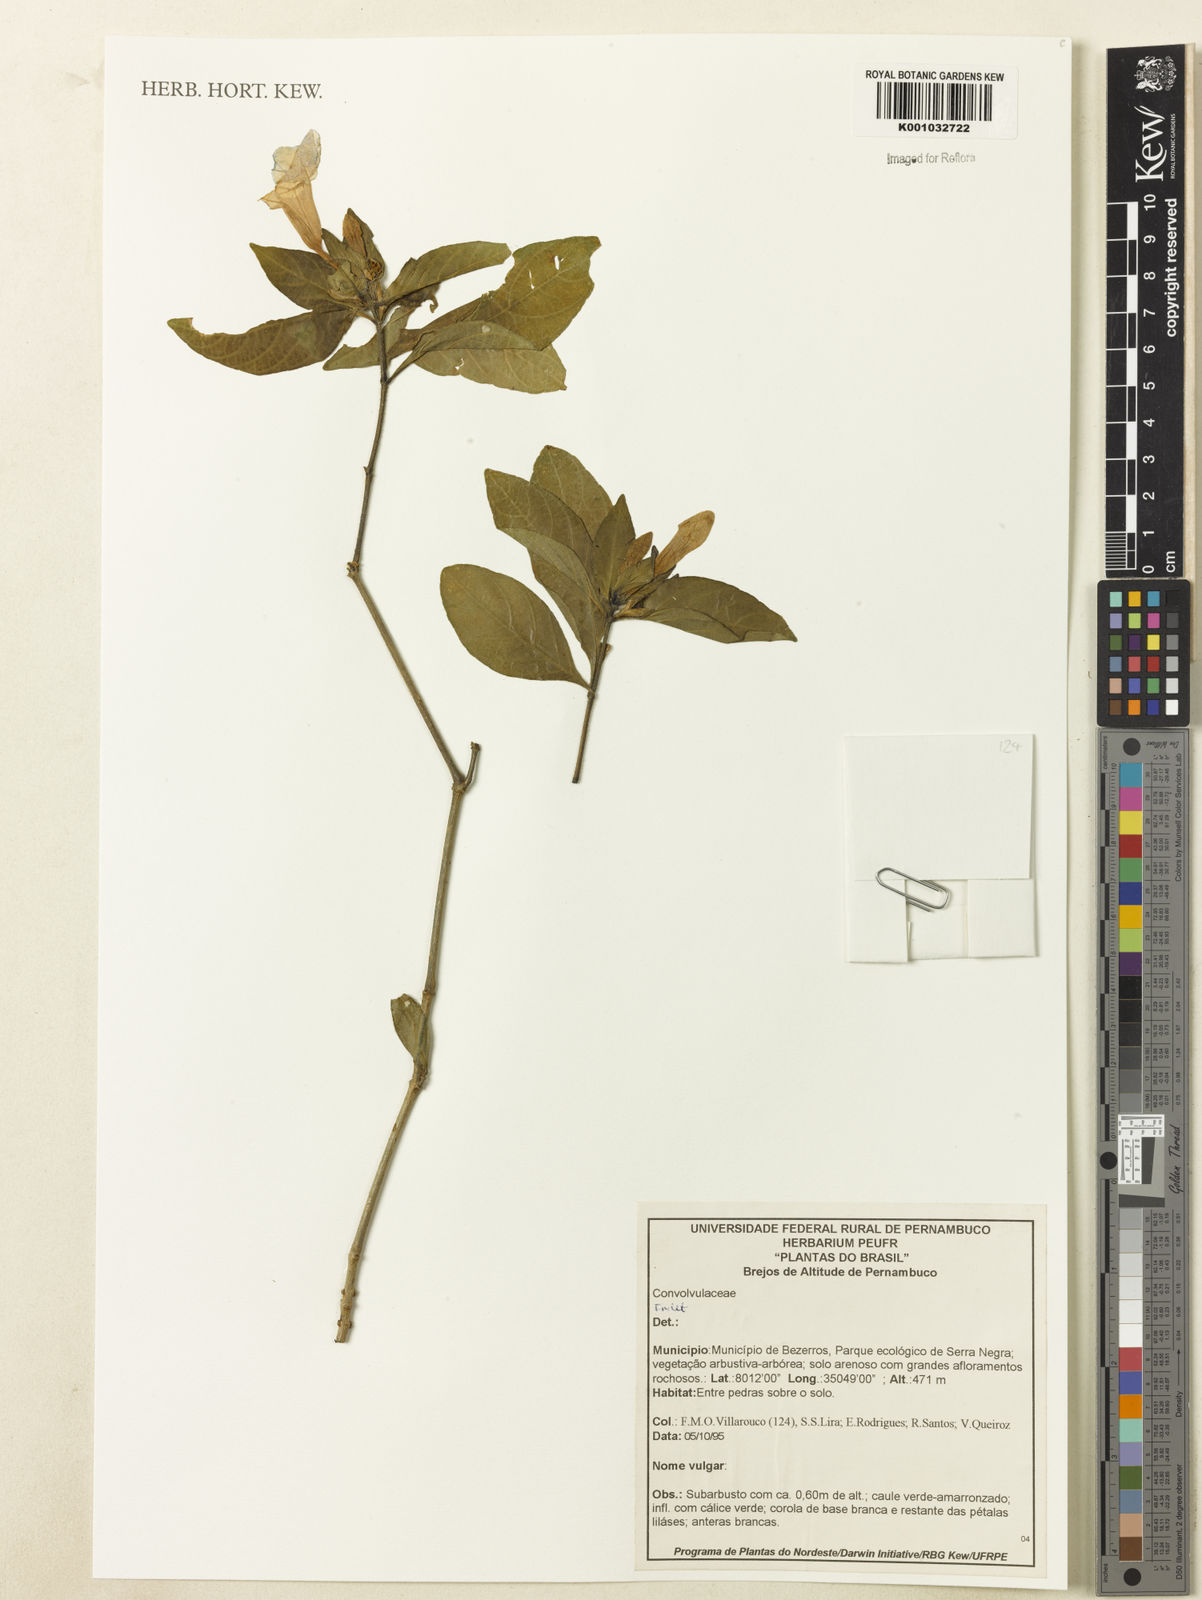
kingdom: Plantae
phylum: Tracheophyta
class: Magnoliopsida
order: Lamiales
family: Acanthaceae
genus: Ruellia
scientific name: Ruellia
